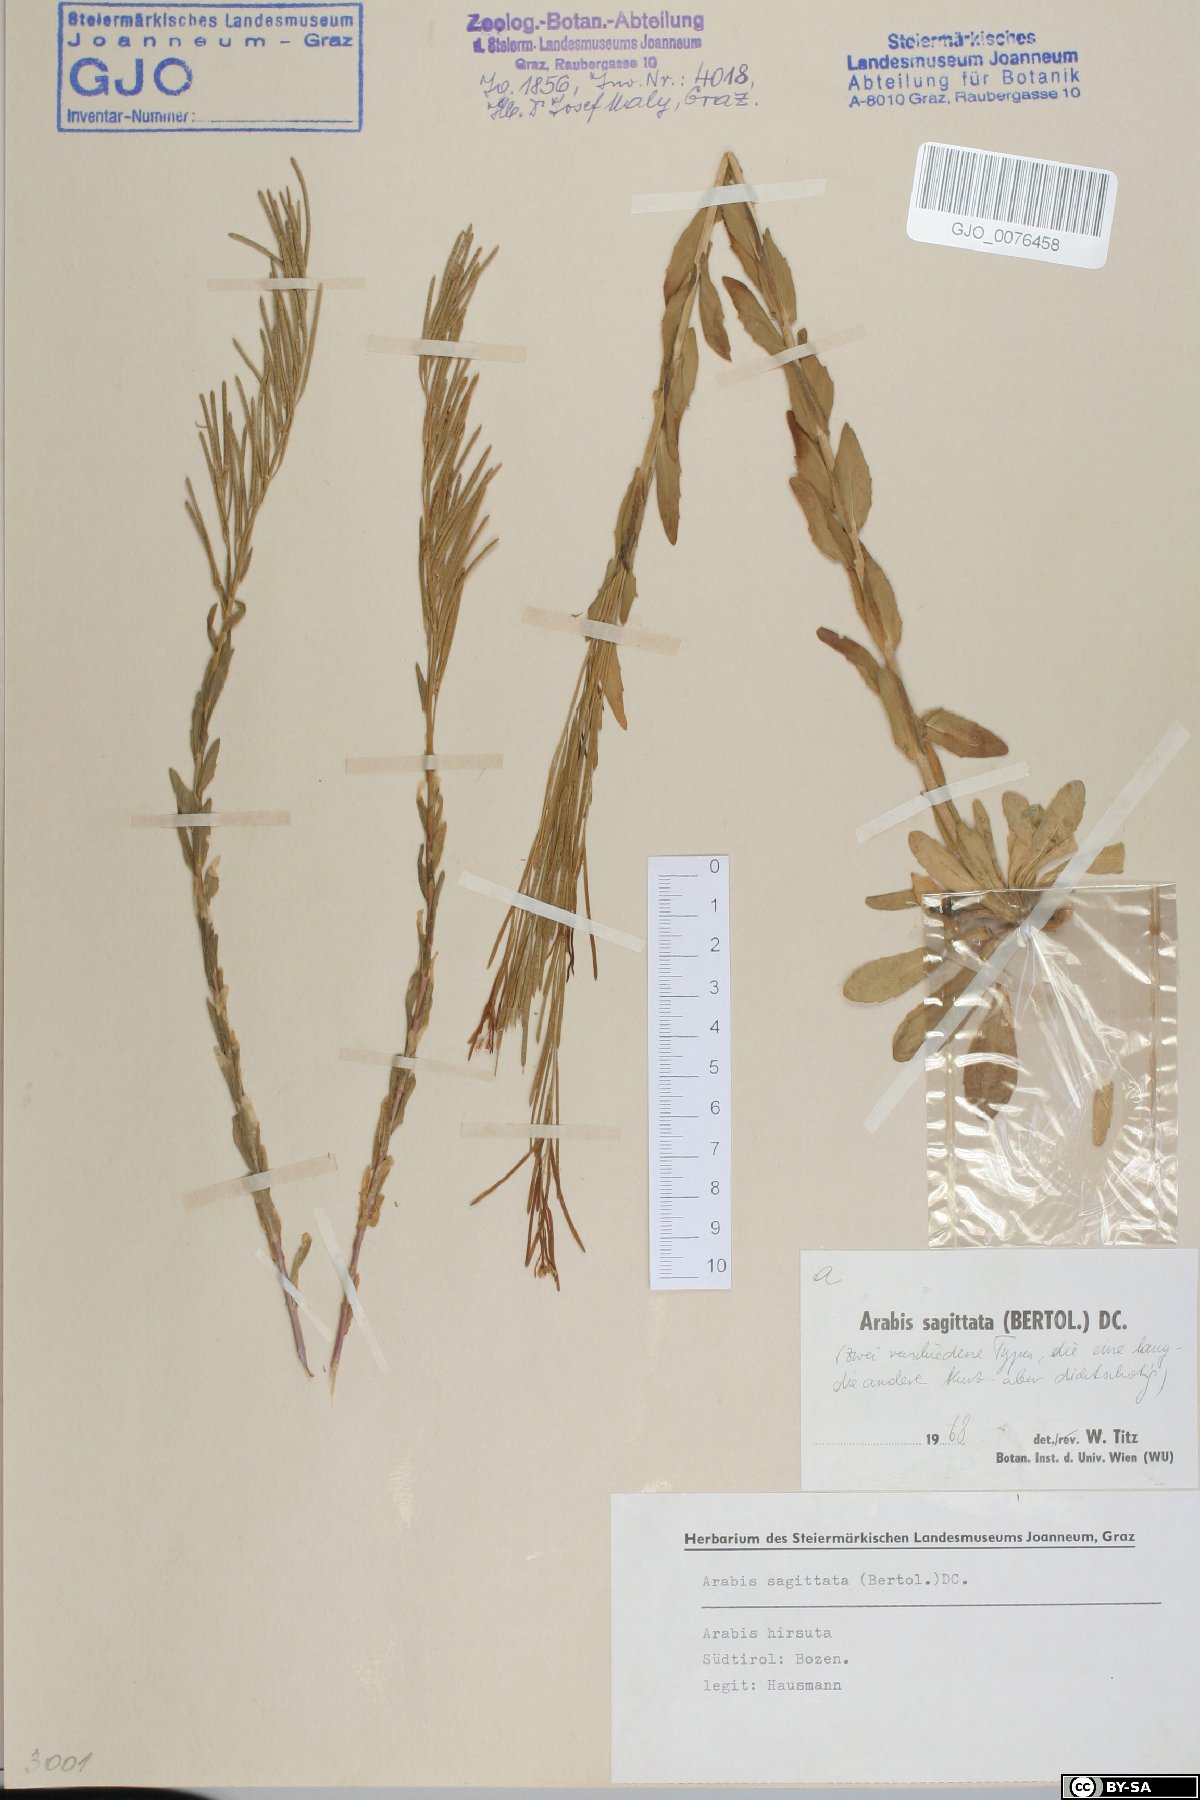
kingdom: Plantae
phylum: Tracheophyta
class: Magnoliopsida
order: Brassicales
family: Brassicaceae
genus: Arabis
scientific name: Arabis sagittata
